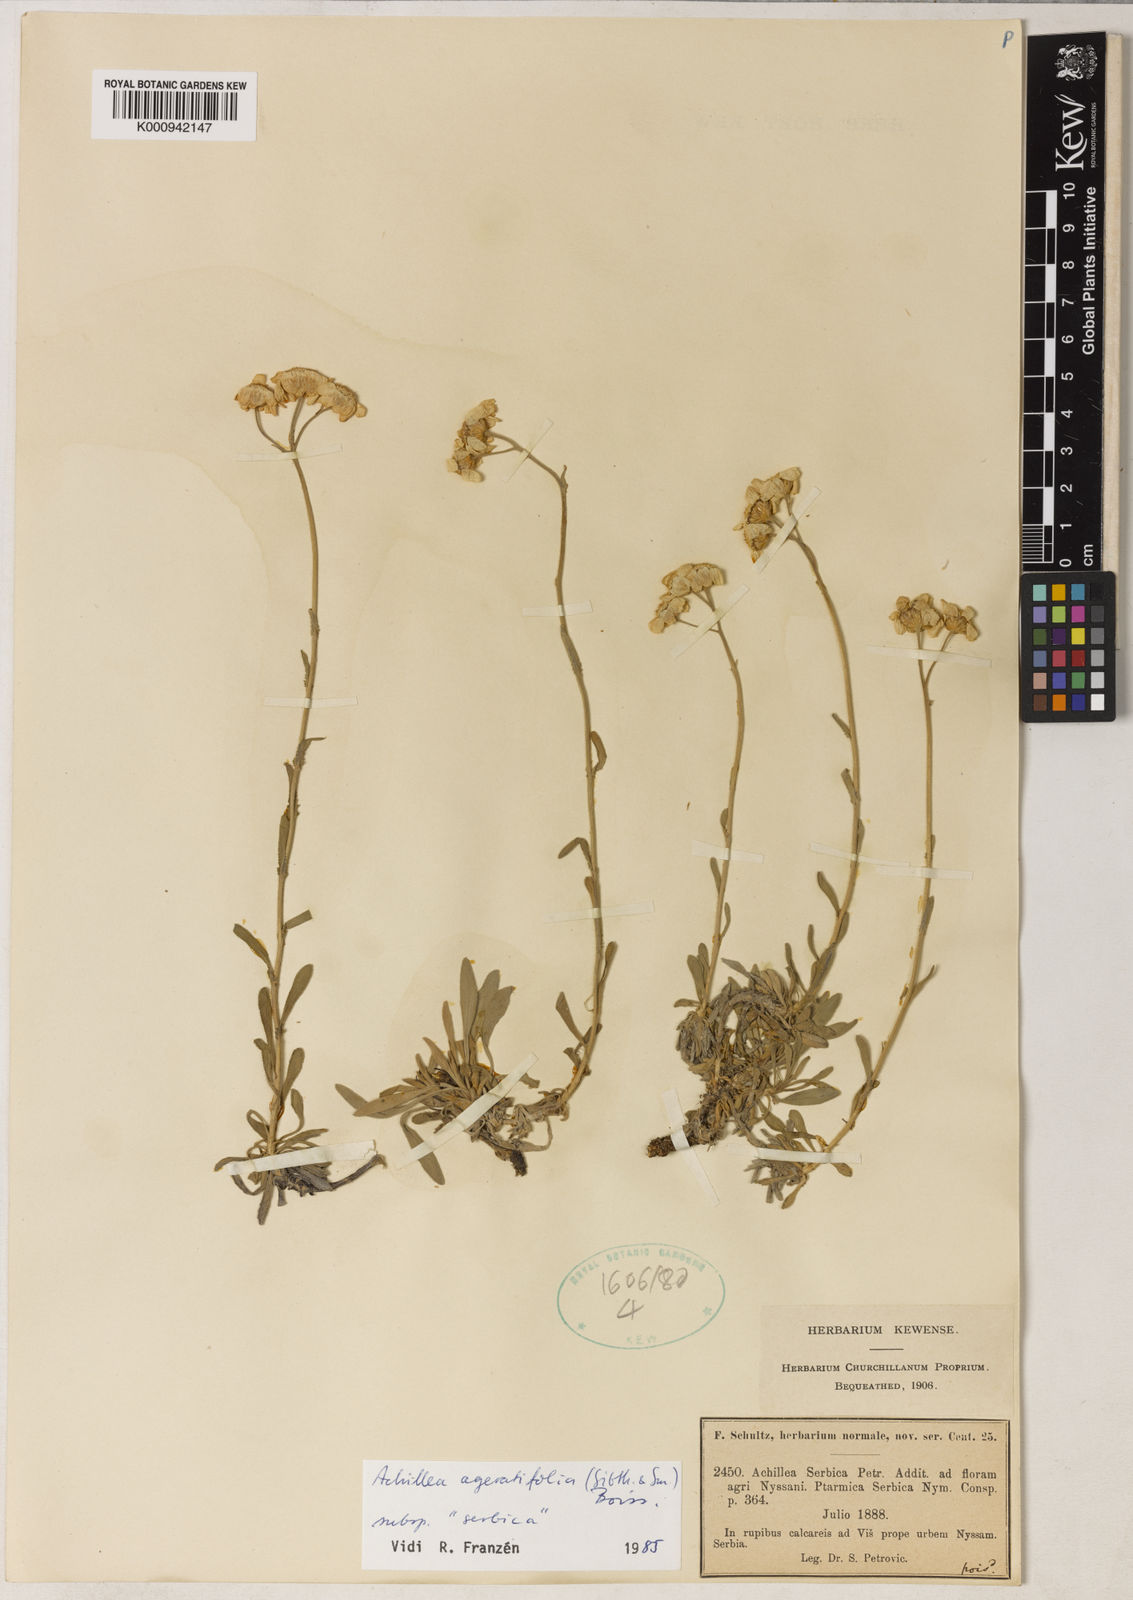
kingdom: Plantae
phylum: Tracheophyta
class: Magnoliopsida
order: Asterales
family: Asteraceae
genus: Achillea
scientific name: Achillea
